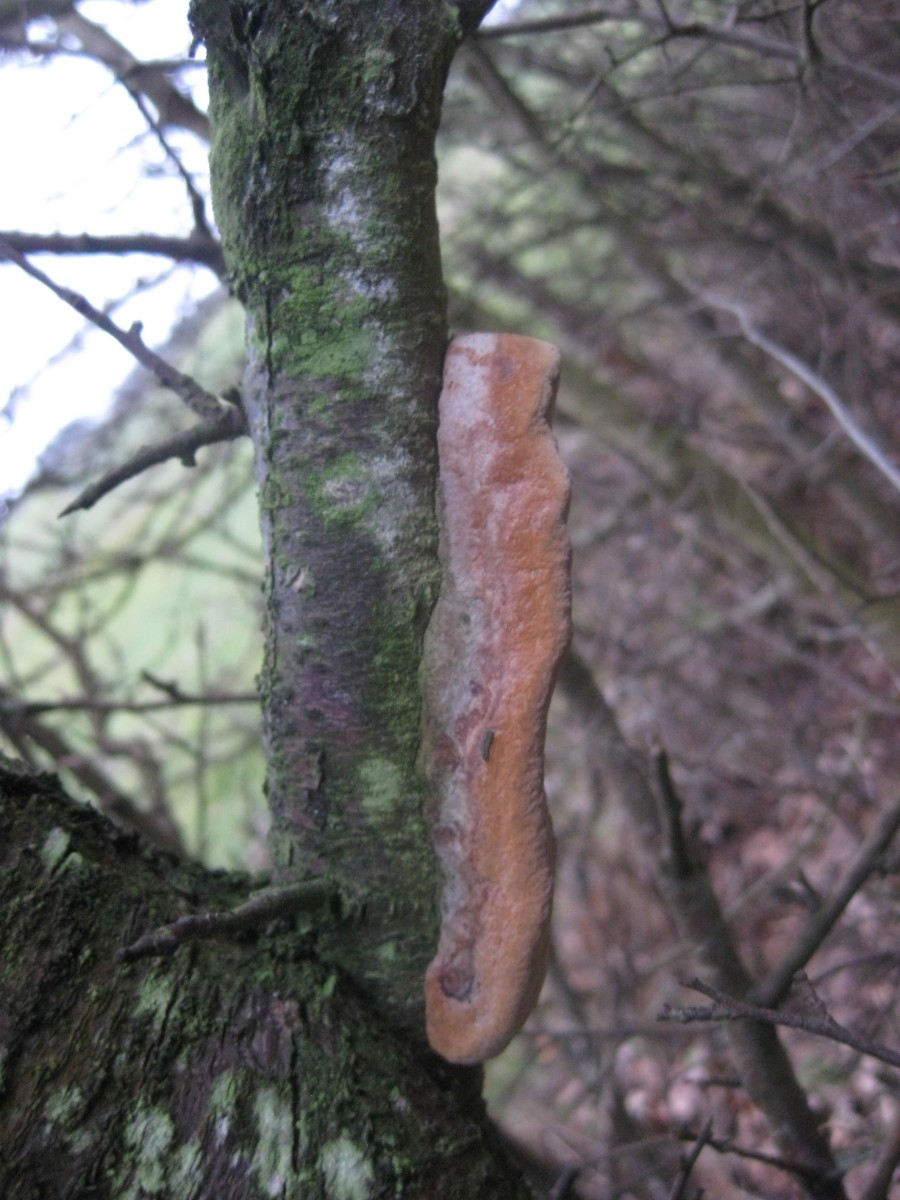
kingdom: Fungi
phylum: Basidiomycota
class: Agaricomycetes
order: Hymenochaetales
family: Hymenochaetaceae
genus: Phellinus
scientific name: Phellinus pomaceus
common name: blomme-ildporesvamp
